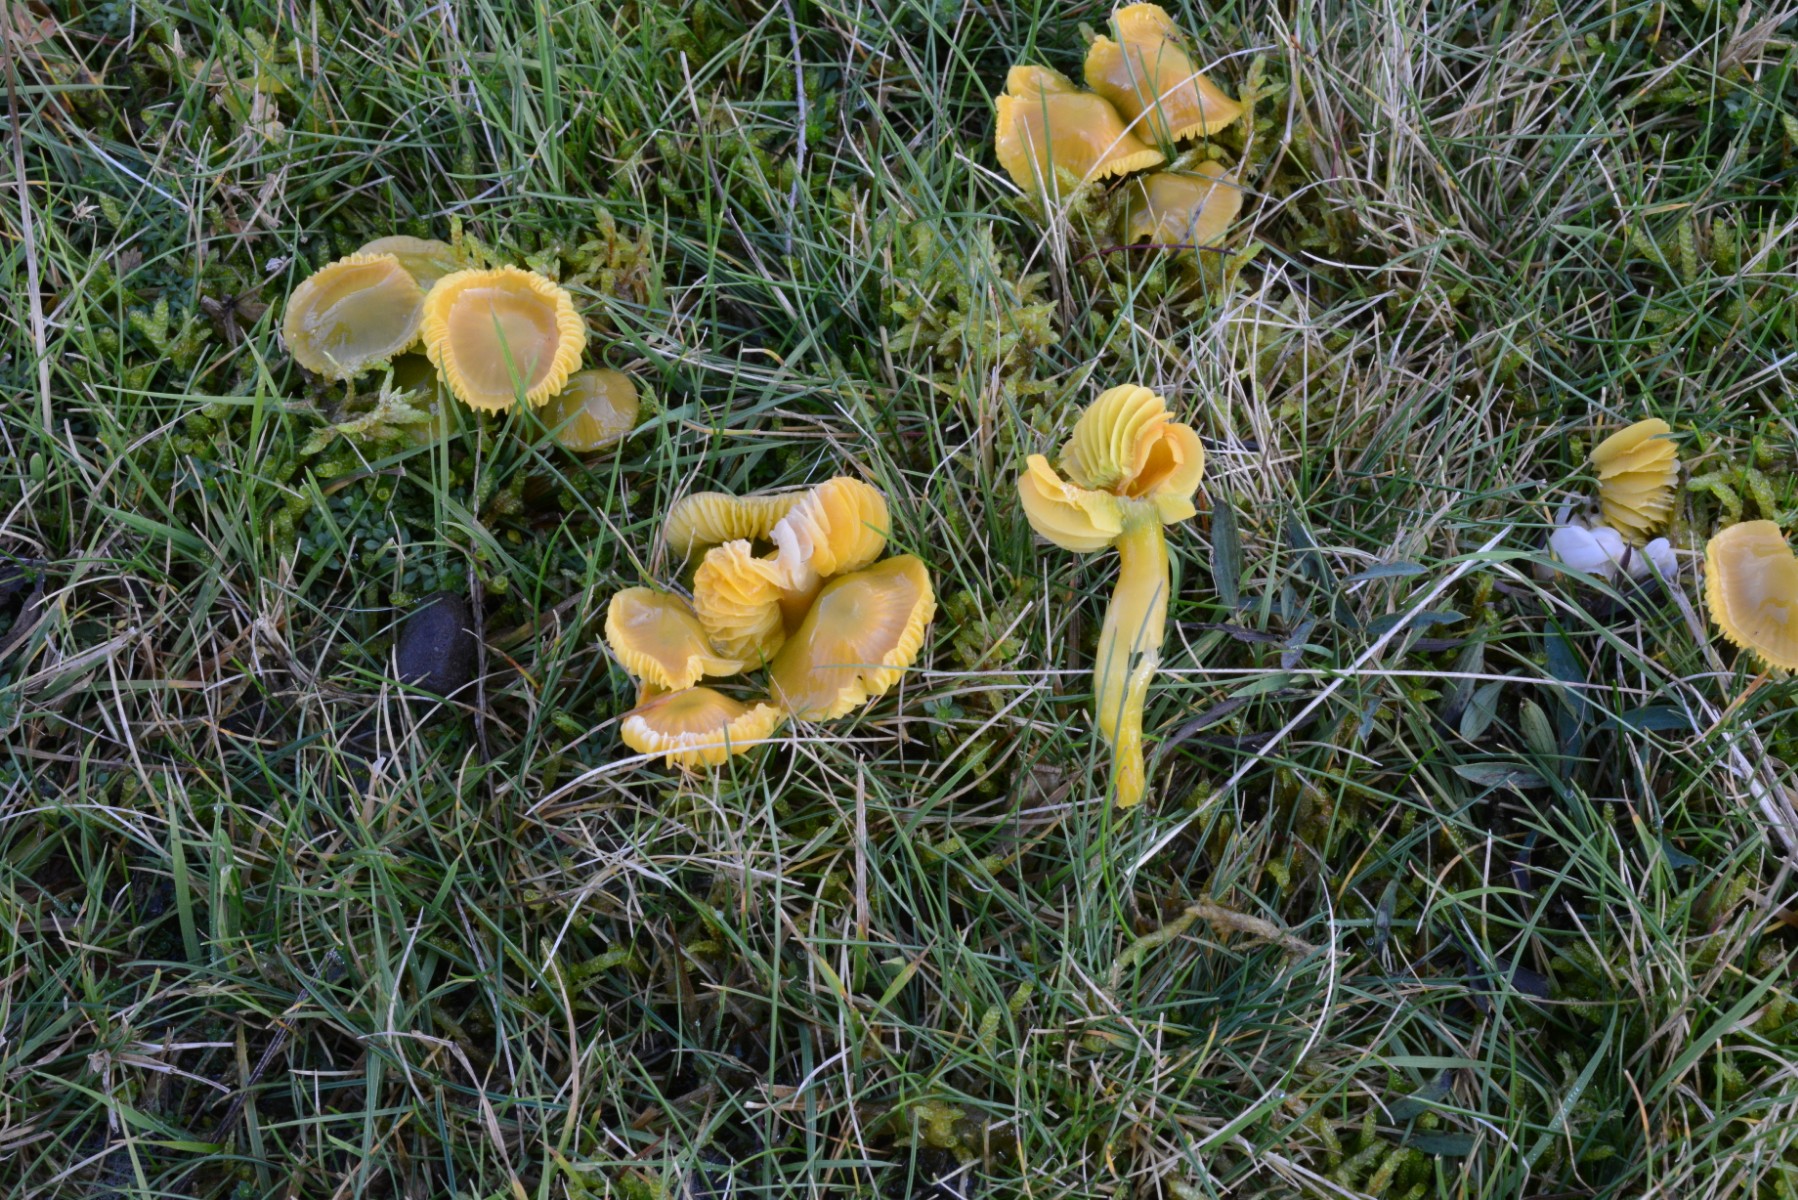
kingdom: Fungi
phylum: Basidiomycota
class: Agaricomycetes
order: Agaricales
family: Hygrophoraceae
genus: Gliophorus
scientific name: Gliophorus psittacinus
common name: papegøje-vokshat
